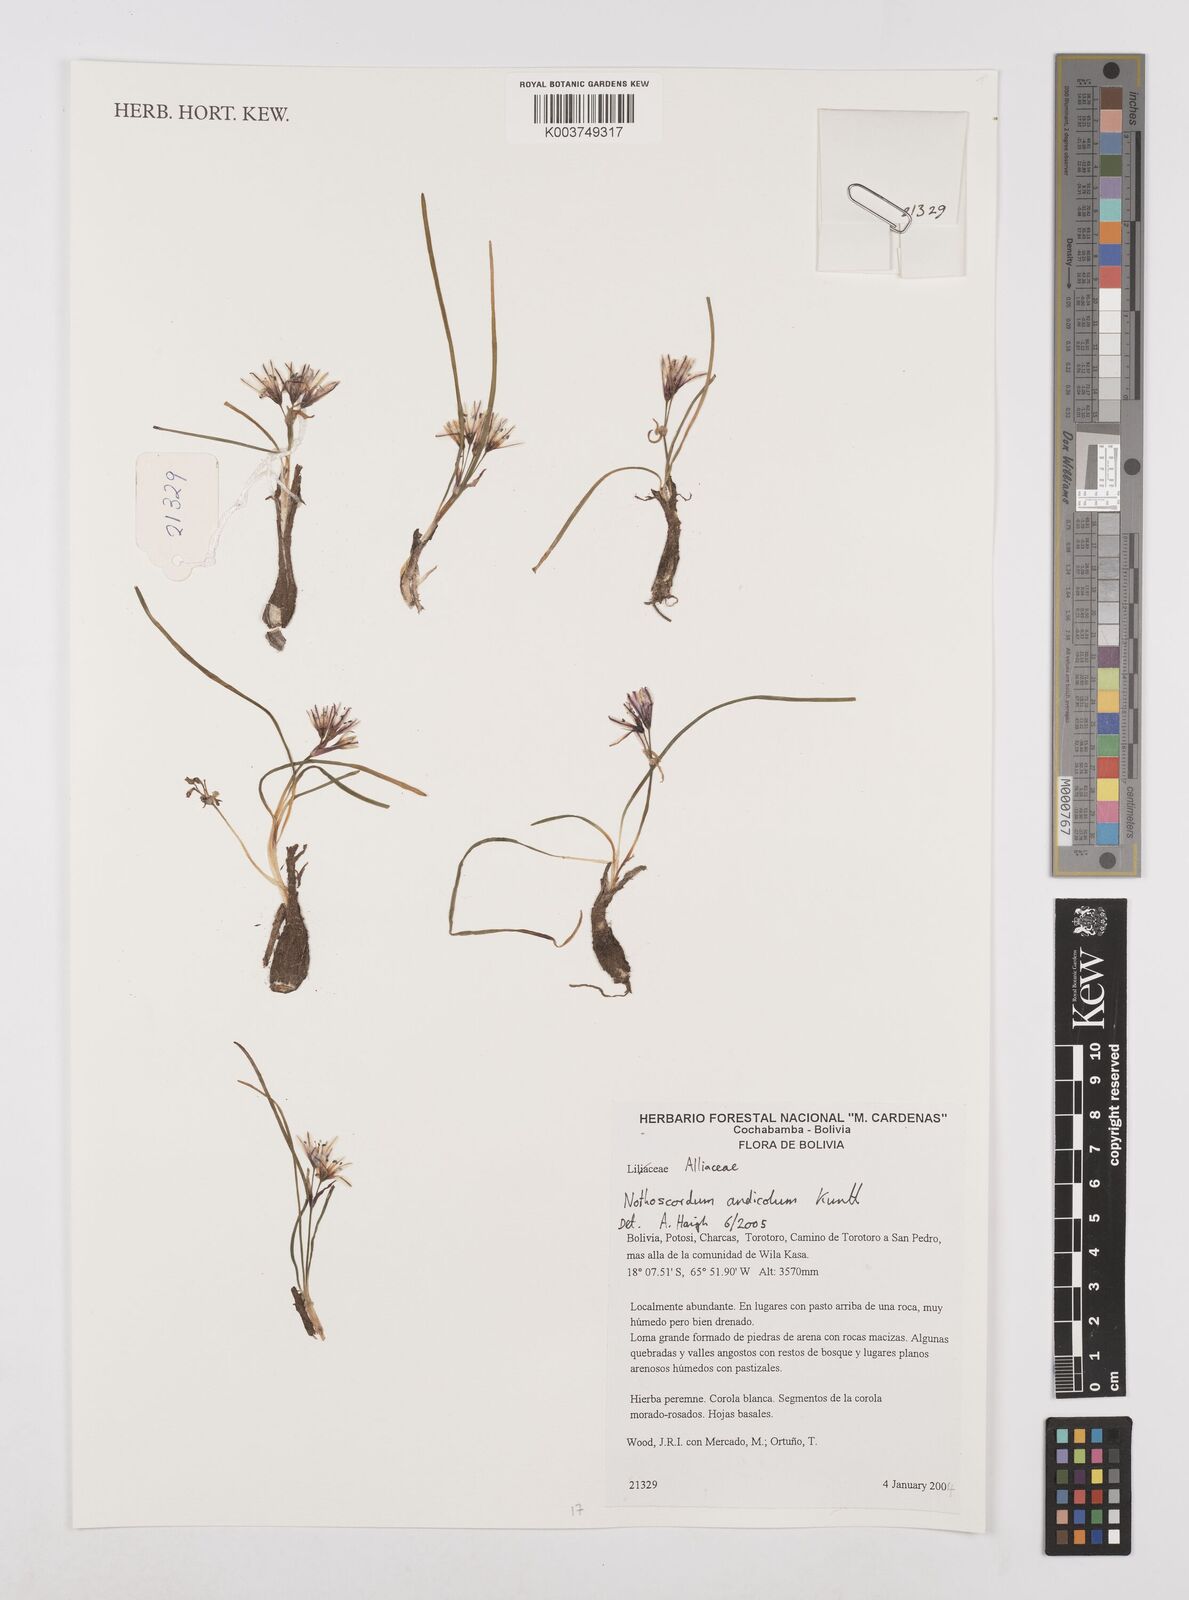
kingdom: Plantae
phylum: Tracheophyta
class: Liliopsida
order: Asparagales
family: Amaryllidaceae
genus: Nothoscordum
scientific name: Nothoscordum andicola
